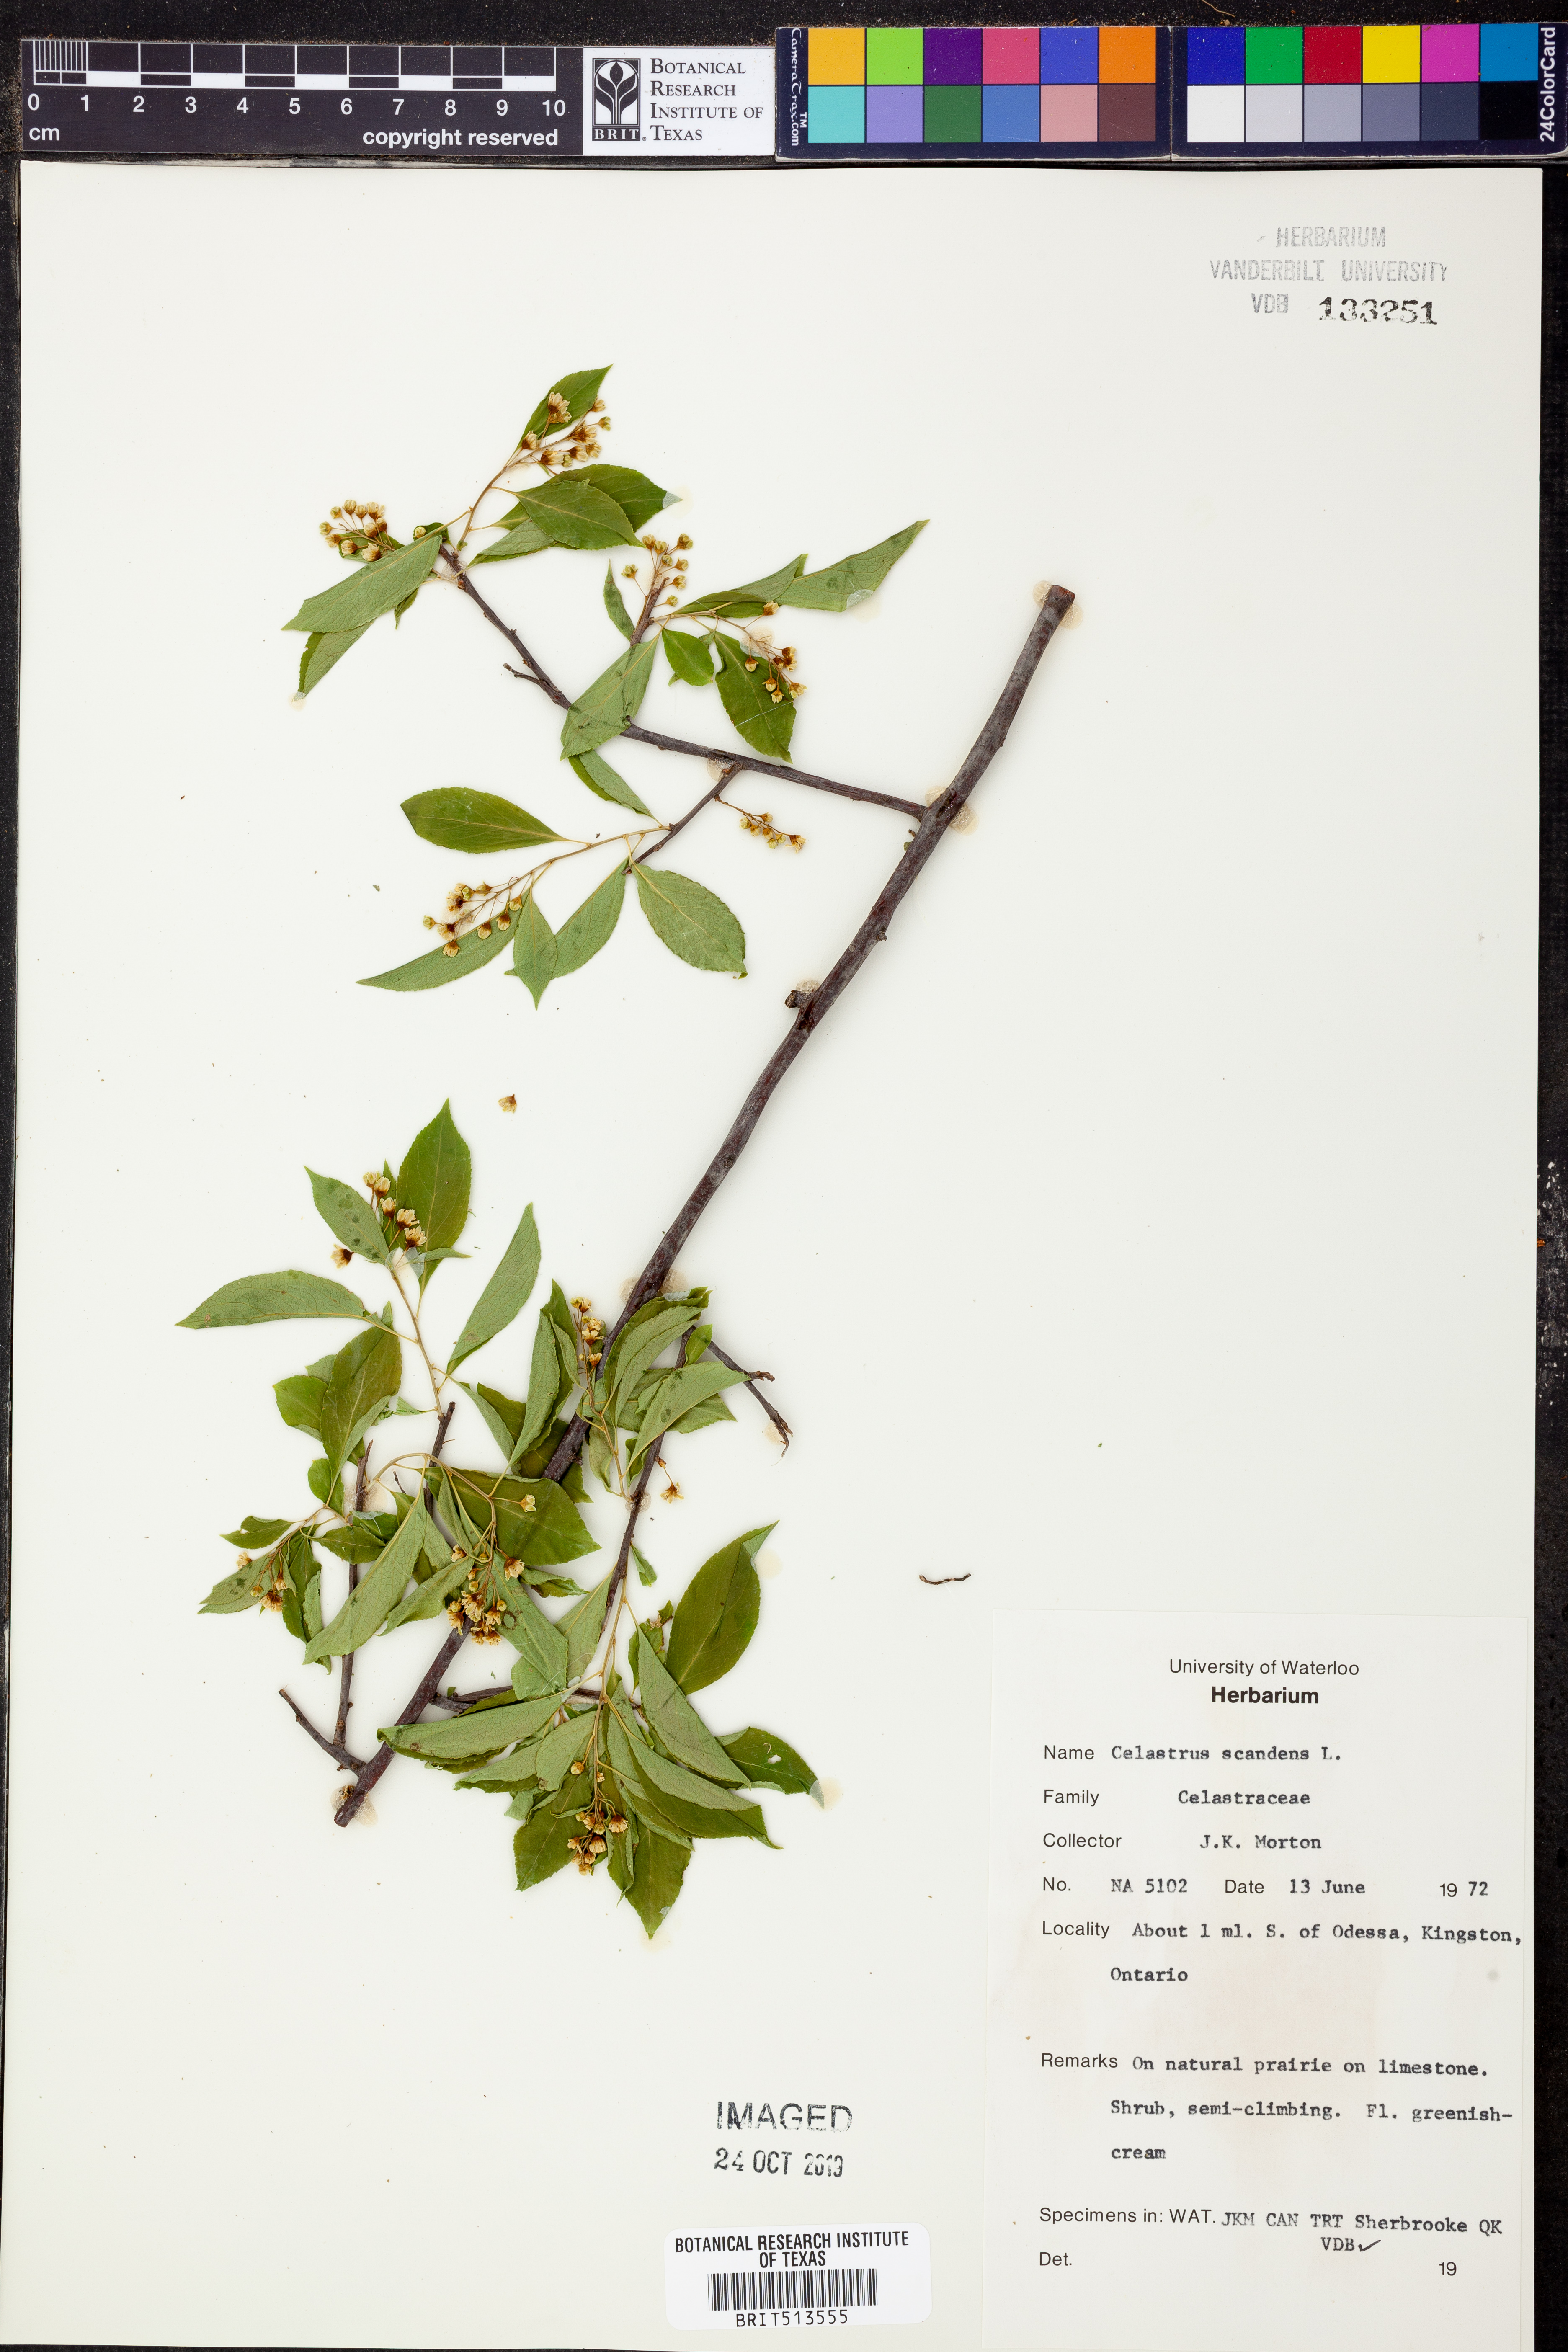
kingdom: Plantae
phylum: Tracheophyta
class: Magnoliopsida
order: Celastrales
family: Celastraceae
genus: Celastrus
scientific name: Celastrus scandens
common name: American bittersweet
